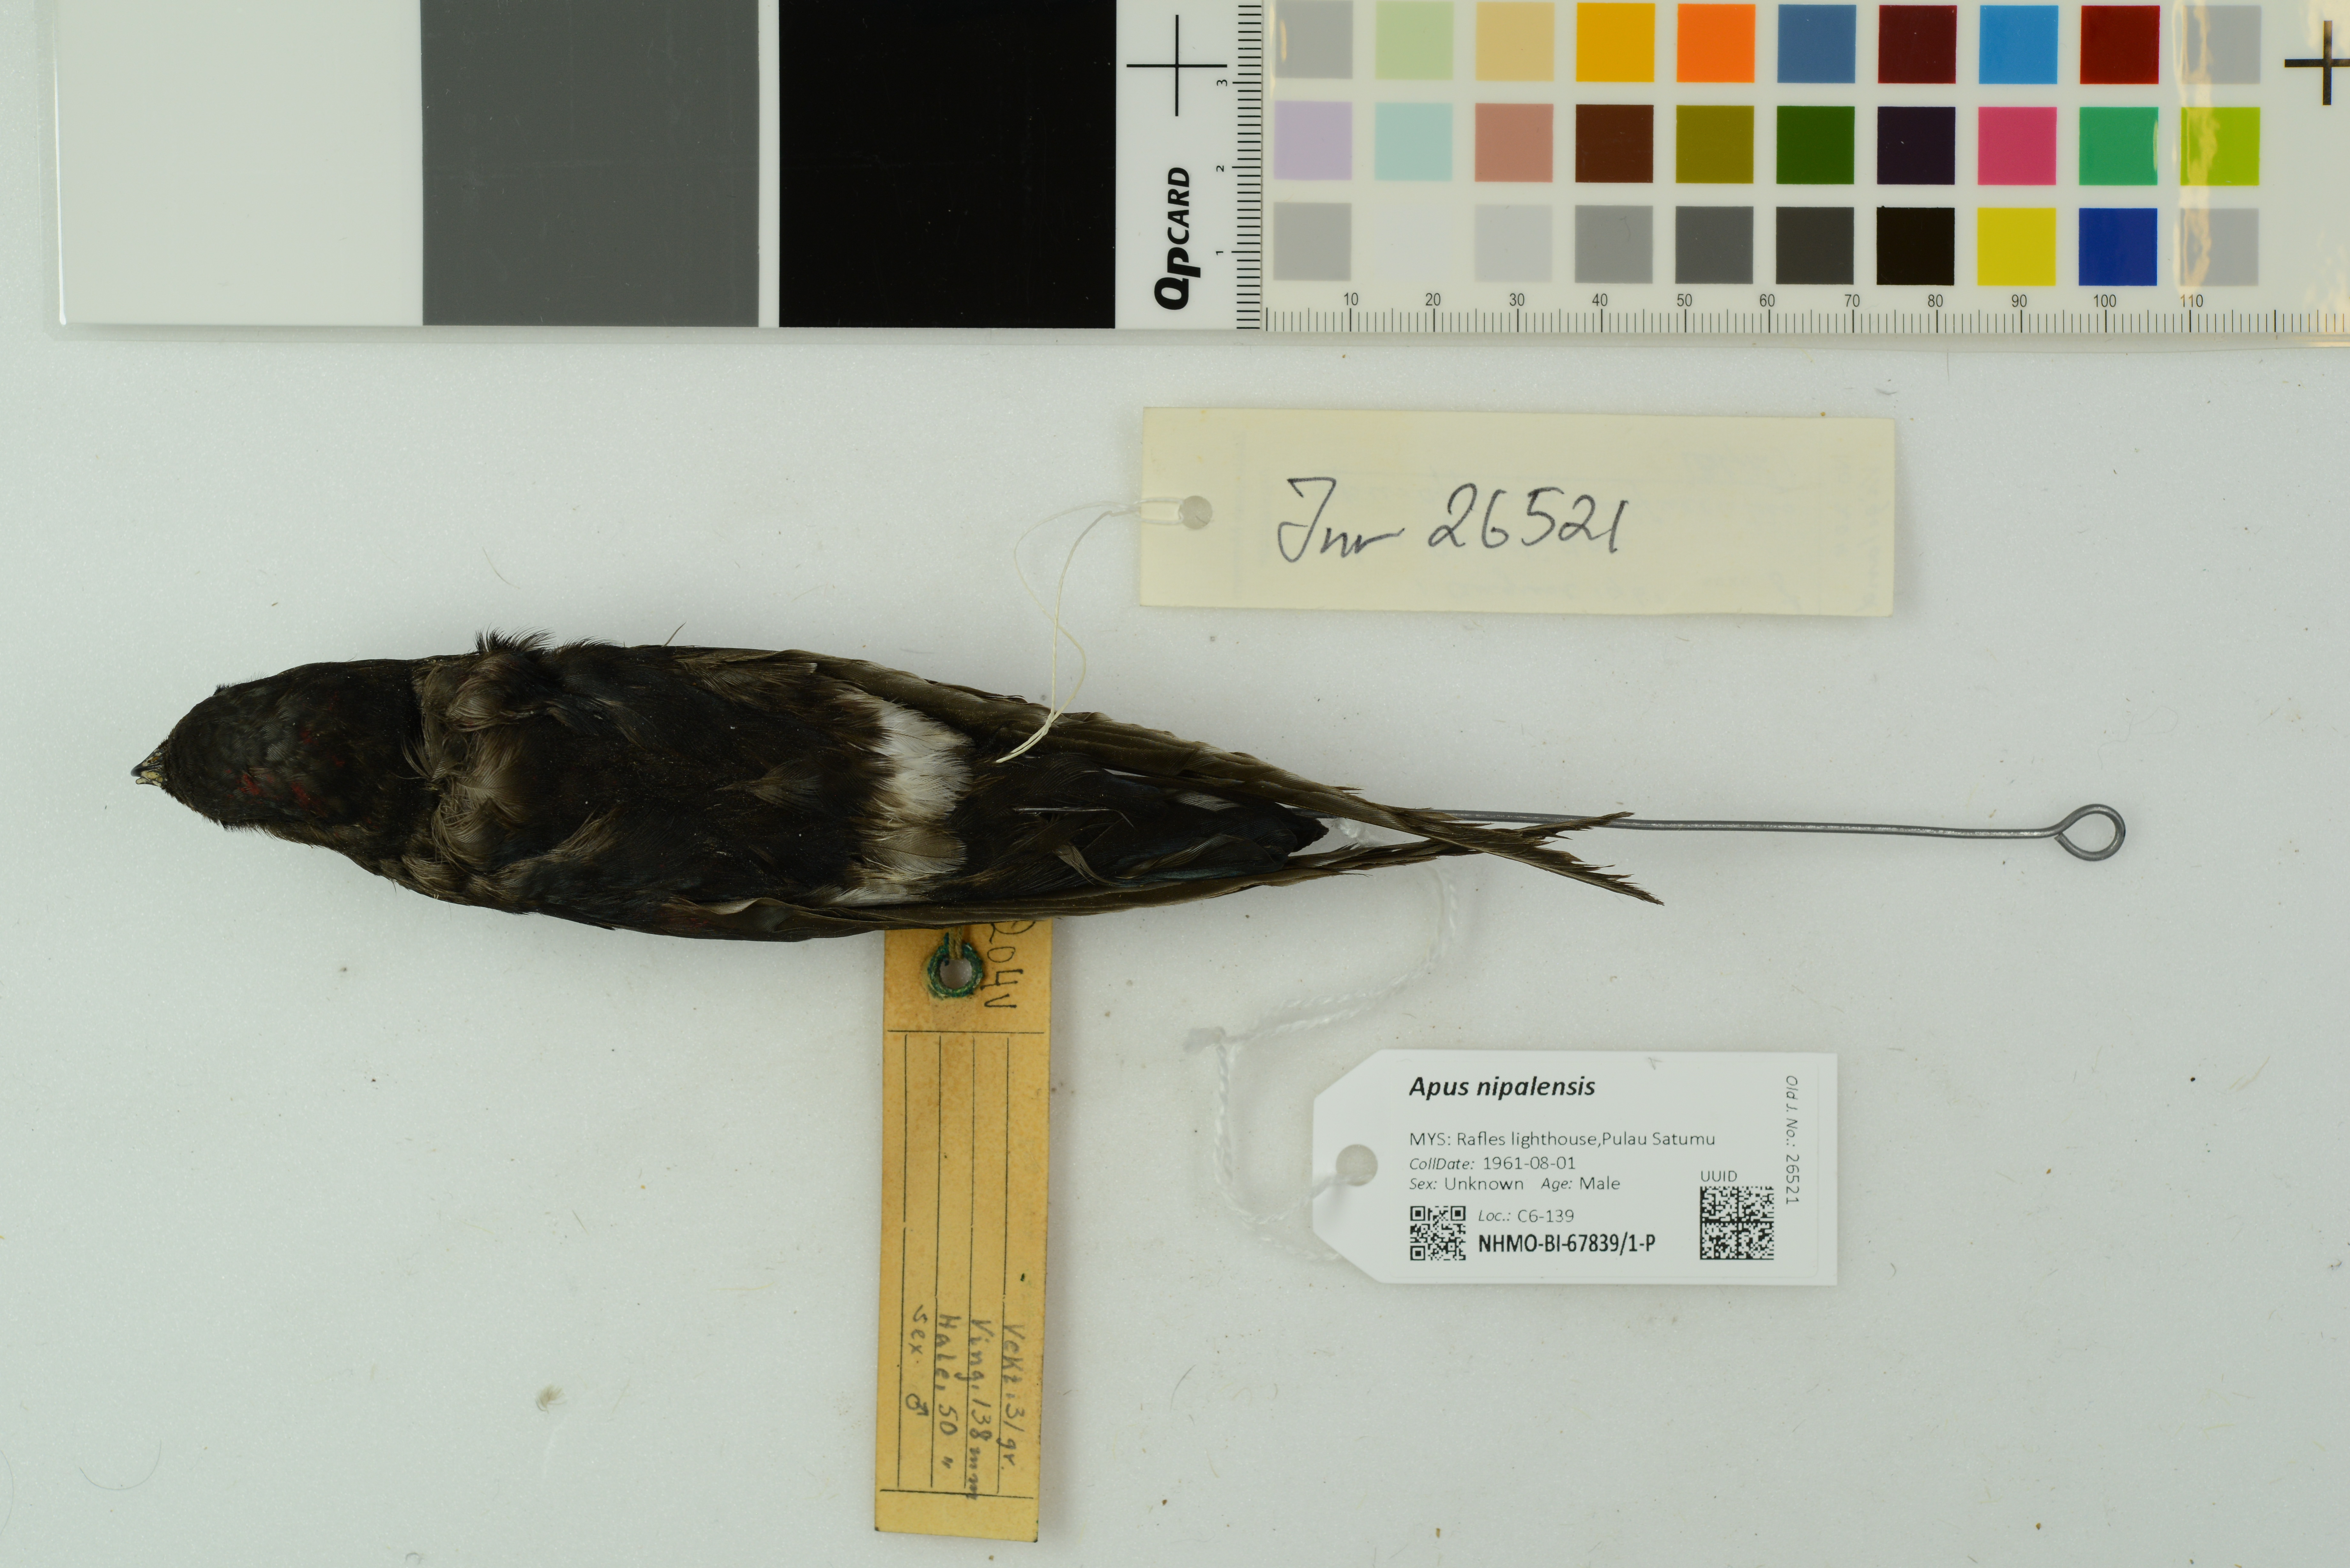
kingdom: Animalia
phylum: Chordata
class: Aves
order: Apodiformes
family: Apodidae
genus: Apus
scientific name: Apus nipalensis
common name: House swift
